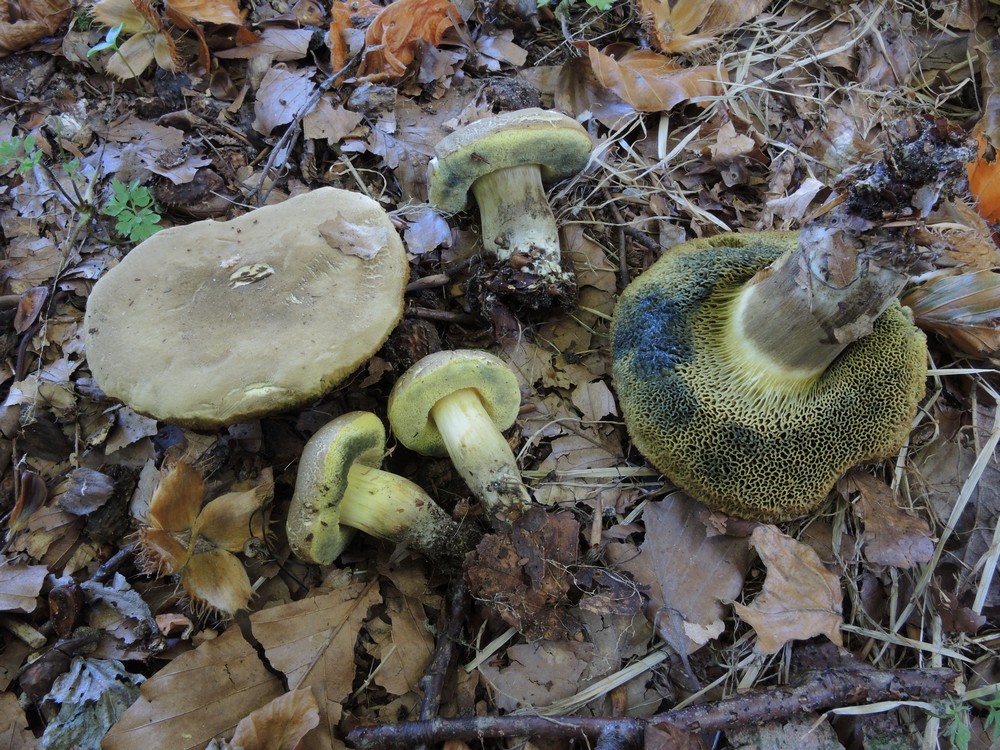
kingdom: Fungi
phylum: Basidiomycota
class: Agaricomycetes
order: Boletales
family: Boletaceae
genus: Xerocomellus
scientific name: Xerocomellus porosporus
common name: hvidsprukken rørhat
